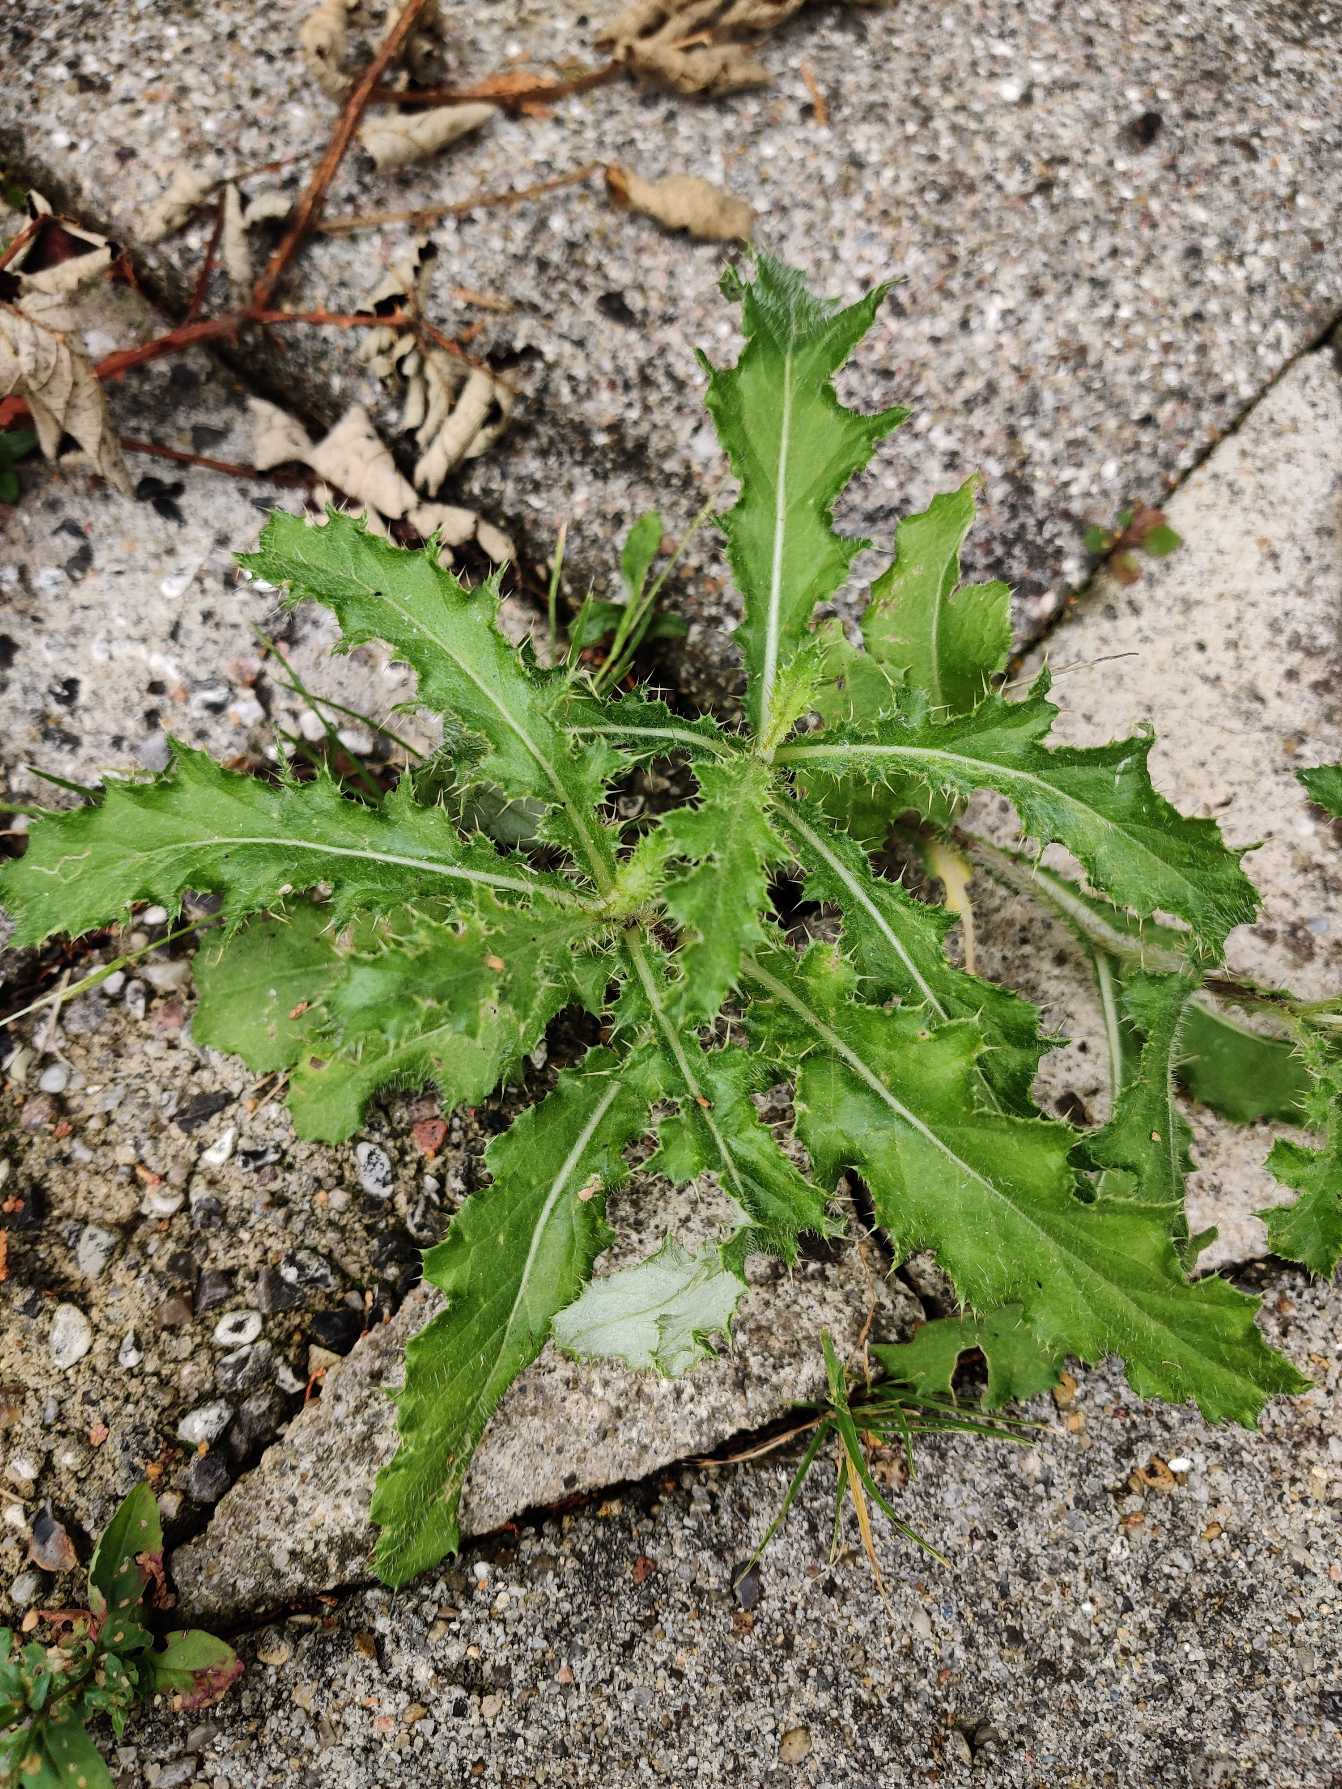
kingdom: Plantae
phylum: Tracheophyta
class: Magnoliopsida
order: Asterales
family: Asteraceae
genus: Cirsium
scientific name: Cirsium arvense
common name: Ager-tidsel
